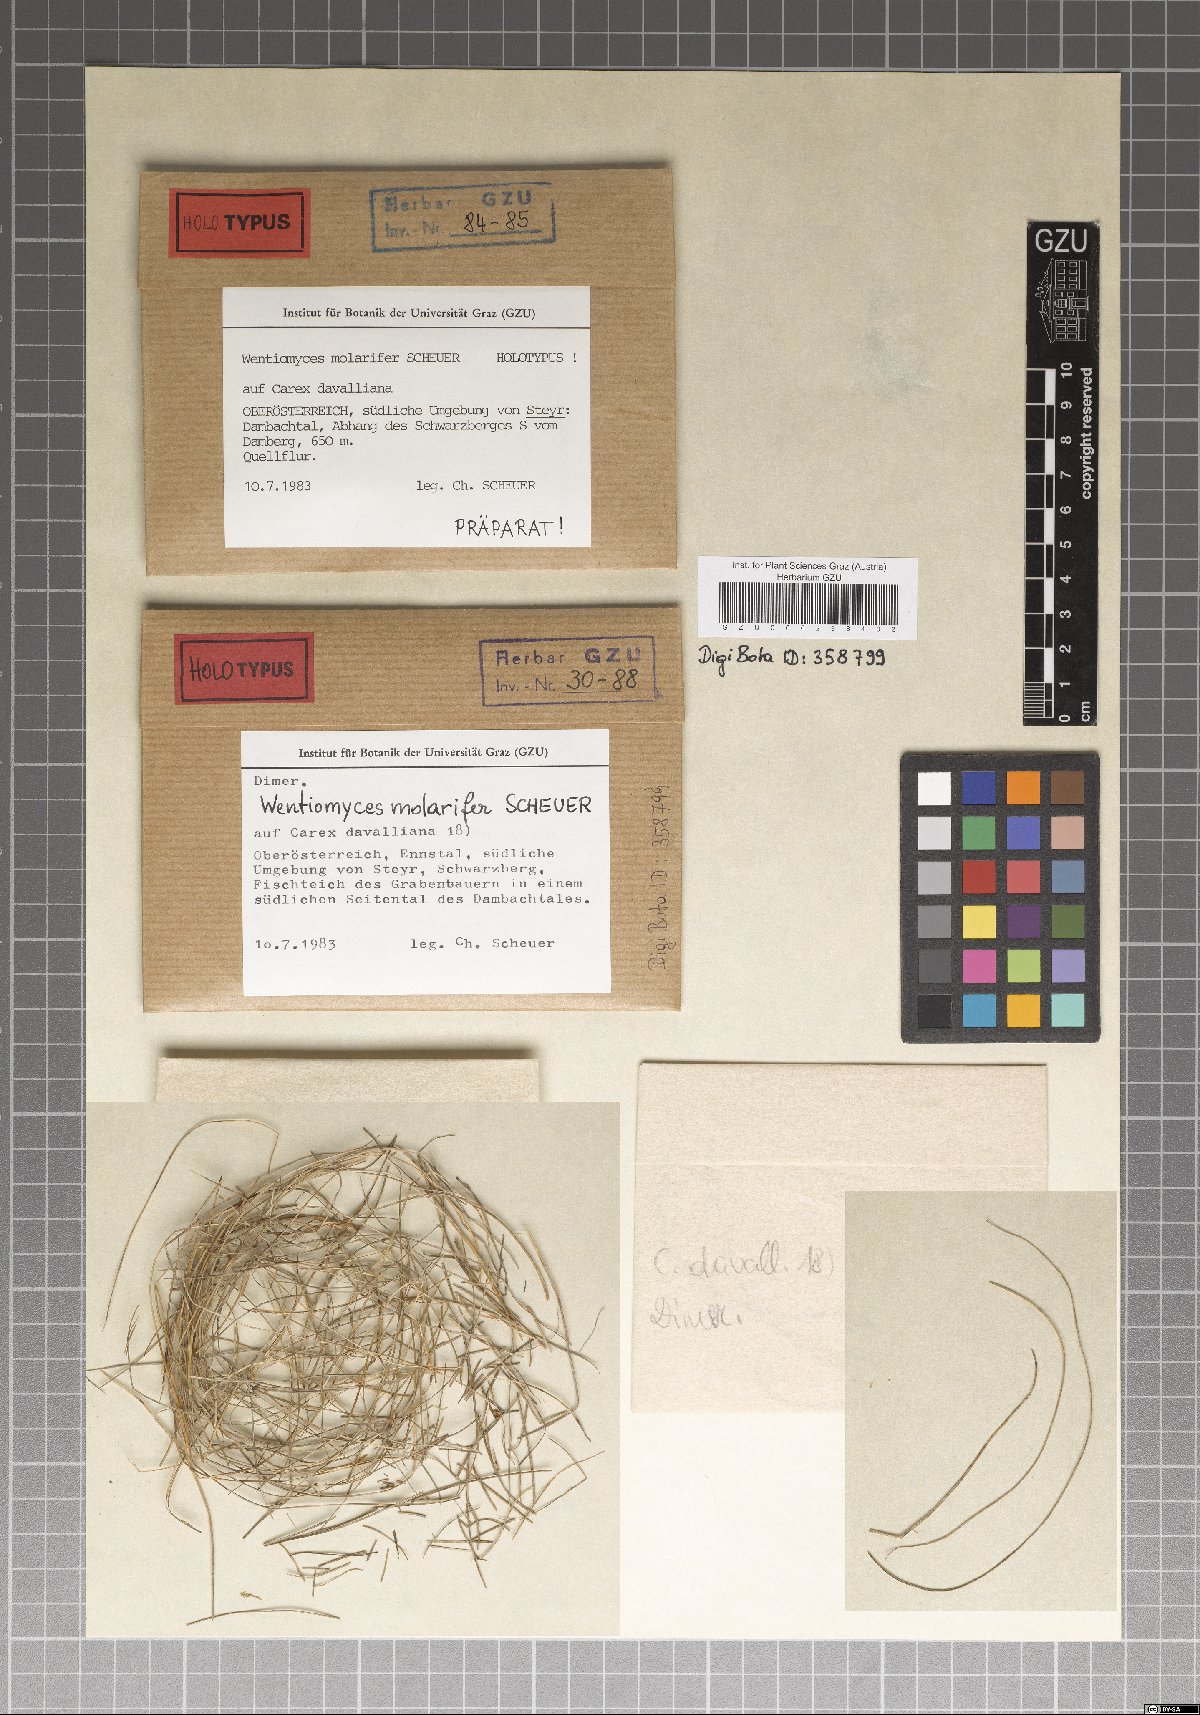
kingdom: Fungi
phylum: Ascomycota
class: Dothideomycetes
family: Pseudoperisporiaceae
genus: Wentiomyces
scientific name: Wentiomyces molarifer
